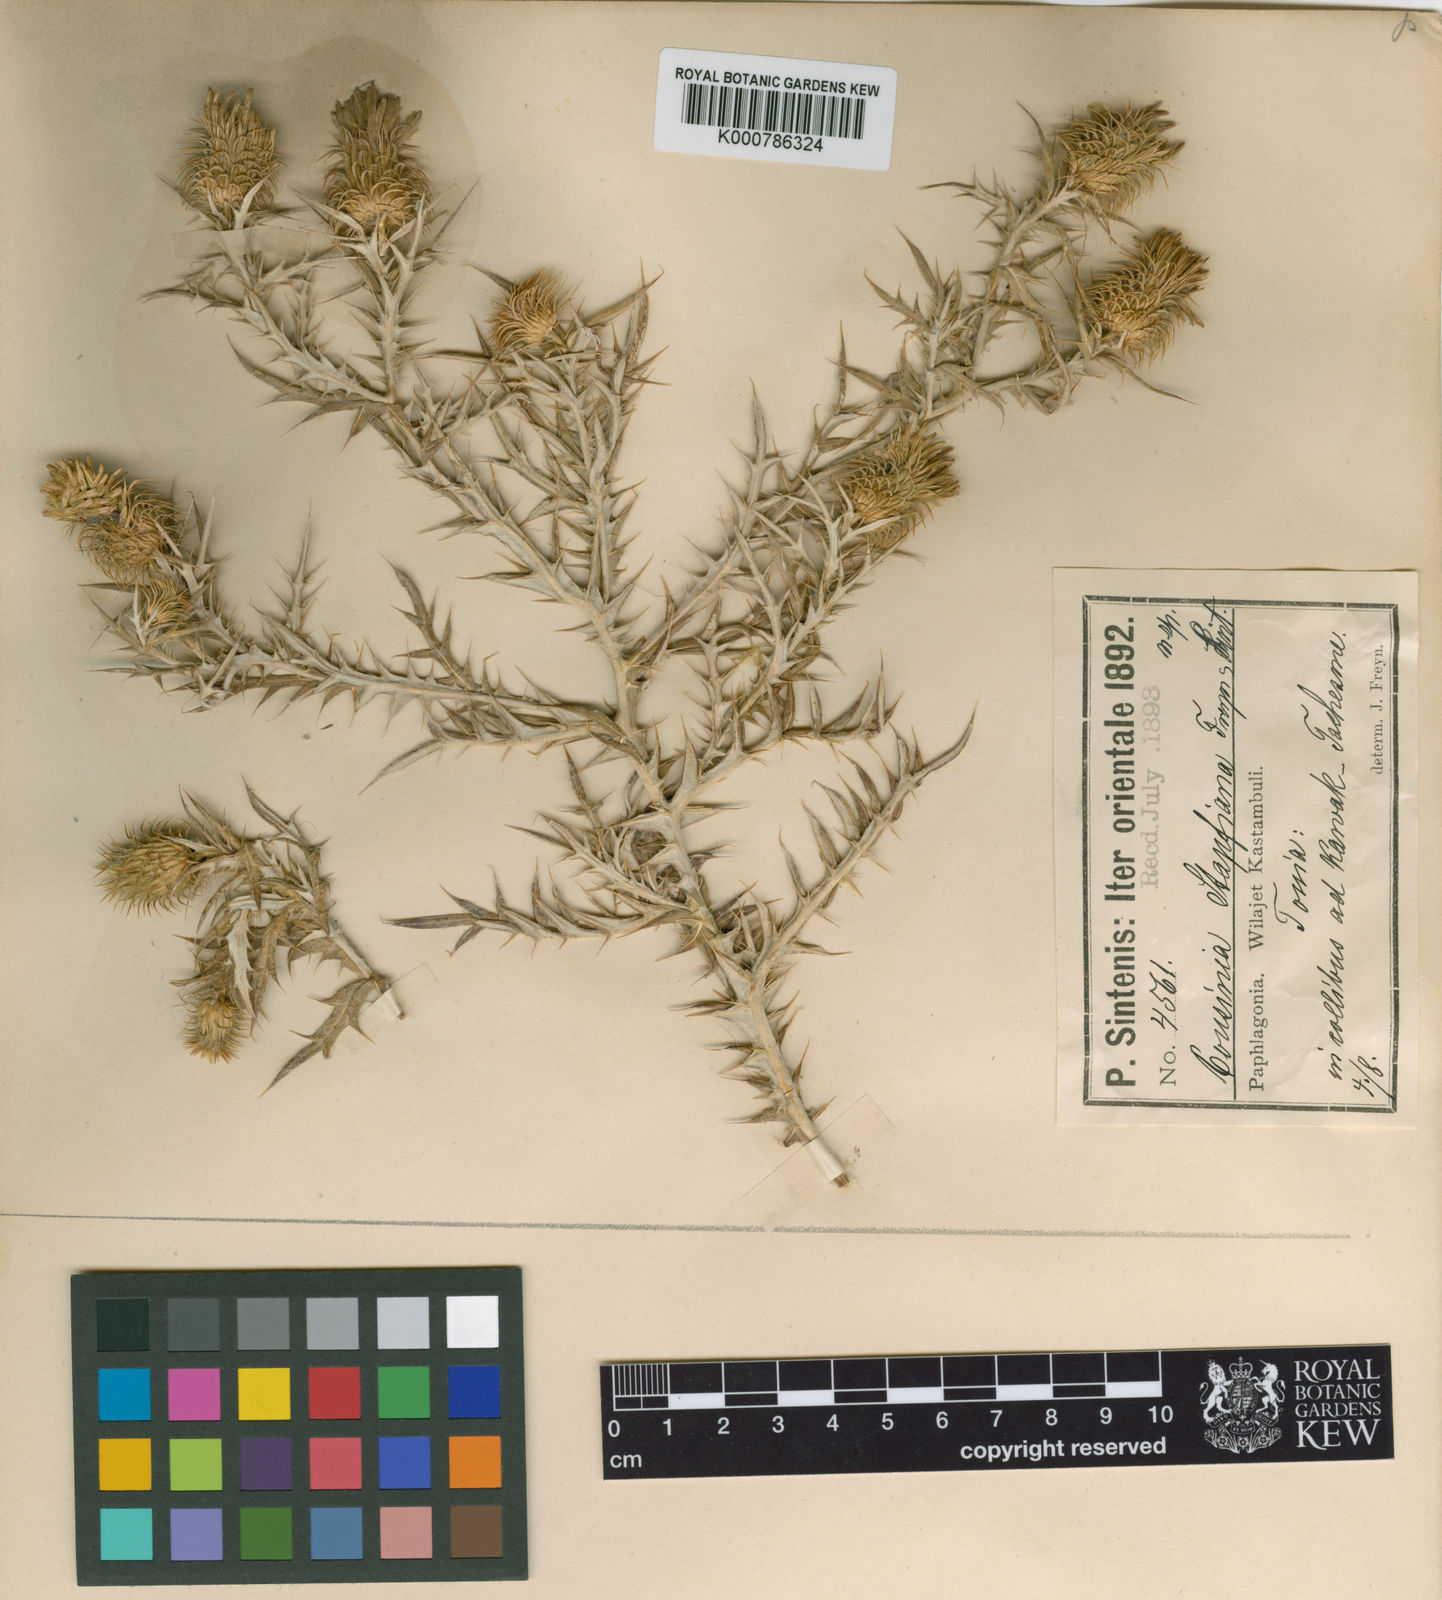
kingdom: Plantae
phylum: Tracheophyta
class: Magnoliopsida
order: Asterales
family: Asteraceae
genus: Cousinia
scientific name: Cousinia stapfiana
